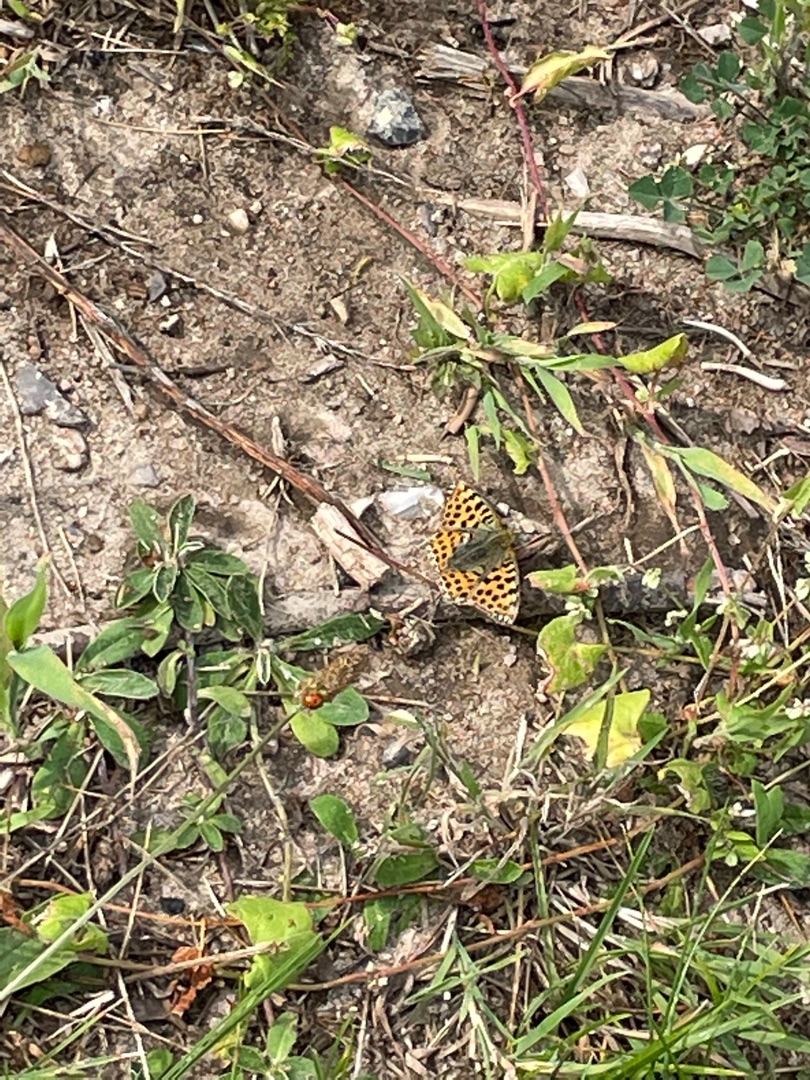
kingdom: Animalia
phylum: Arthropoda
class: Insecta
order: Lepidoptera
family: Nymphalidae
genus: Issoria
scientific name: Issoria lathonia
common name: Storplettet perlemorsommerfugl
